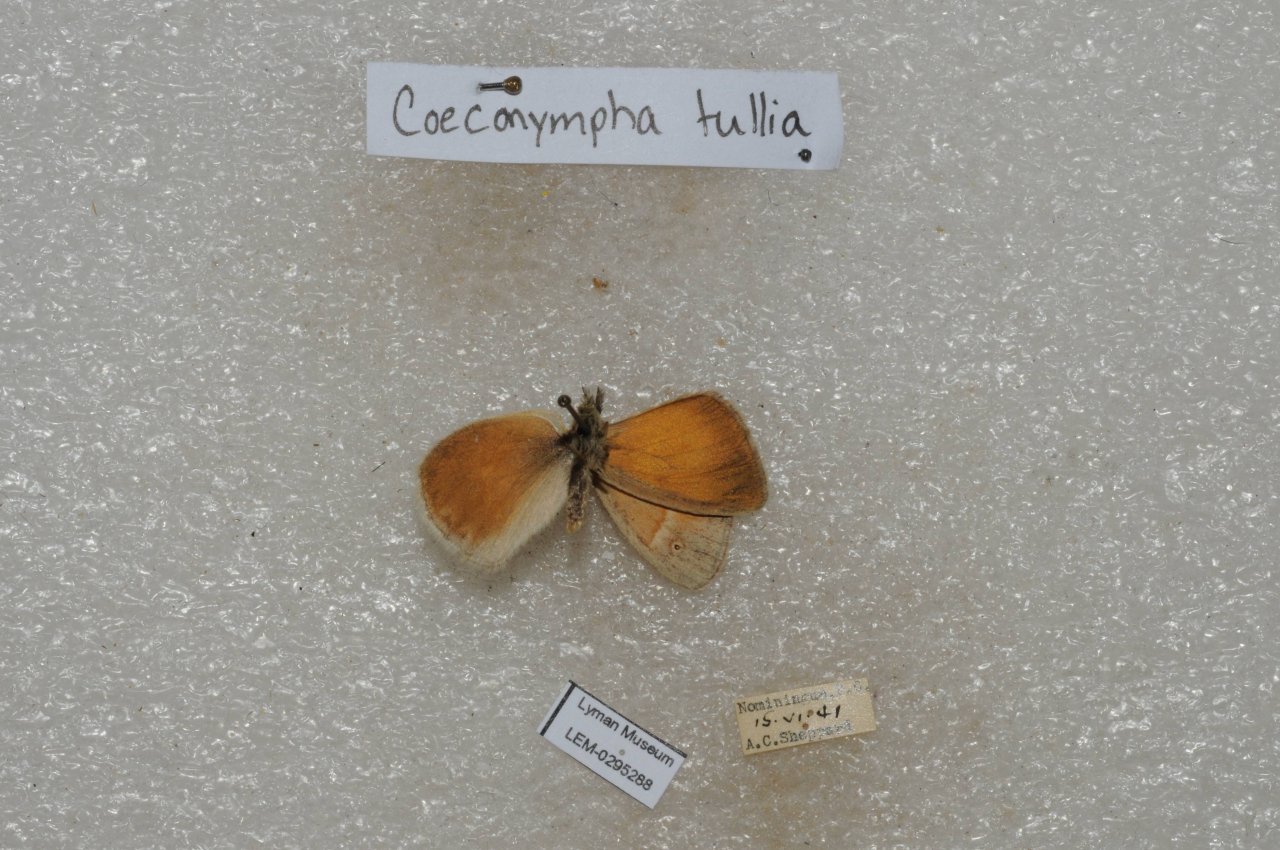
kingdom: Animalia
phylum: Arthropoda
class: Insecta
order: Lepidoptera
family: Nymphalidae
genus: Coenonympha
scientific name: Coenonympha tullia
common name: Large Heath
